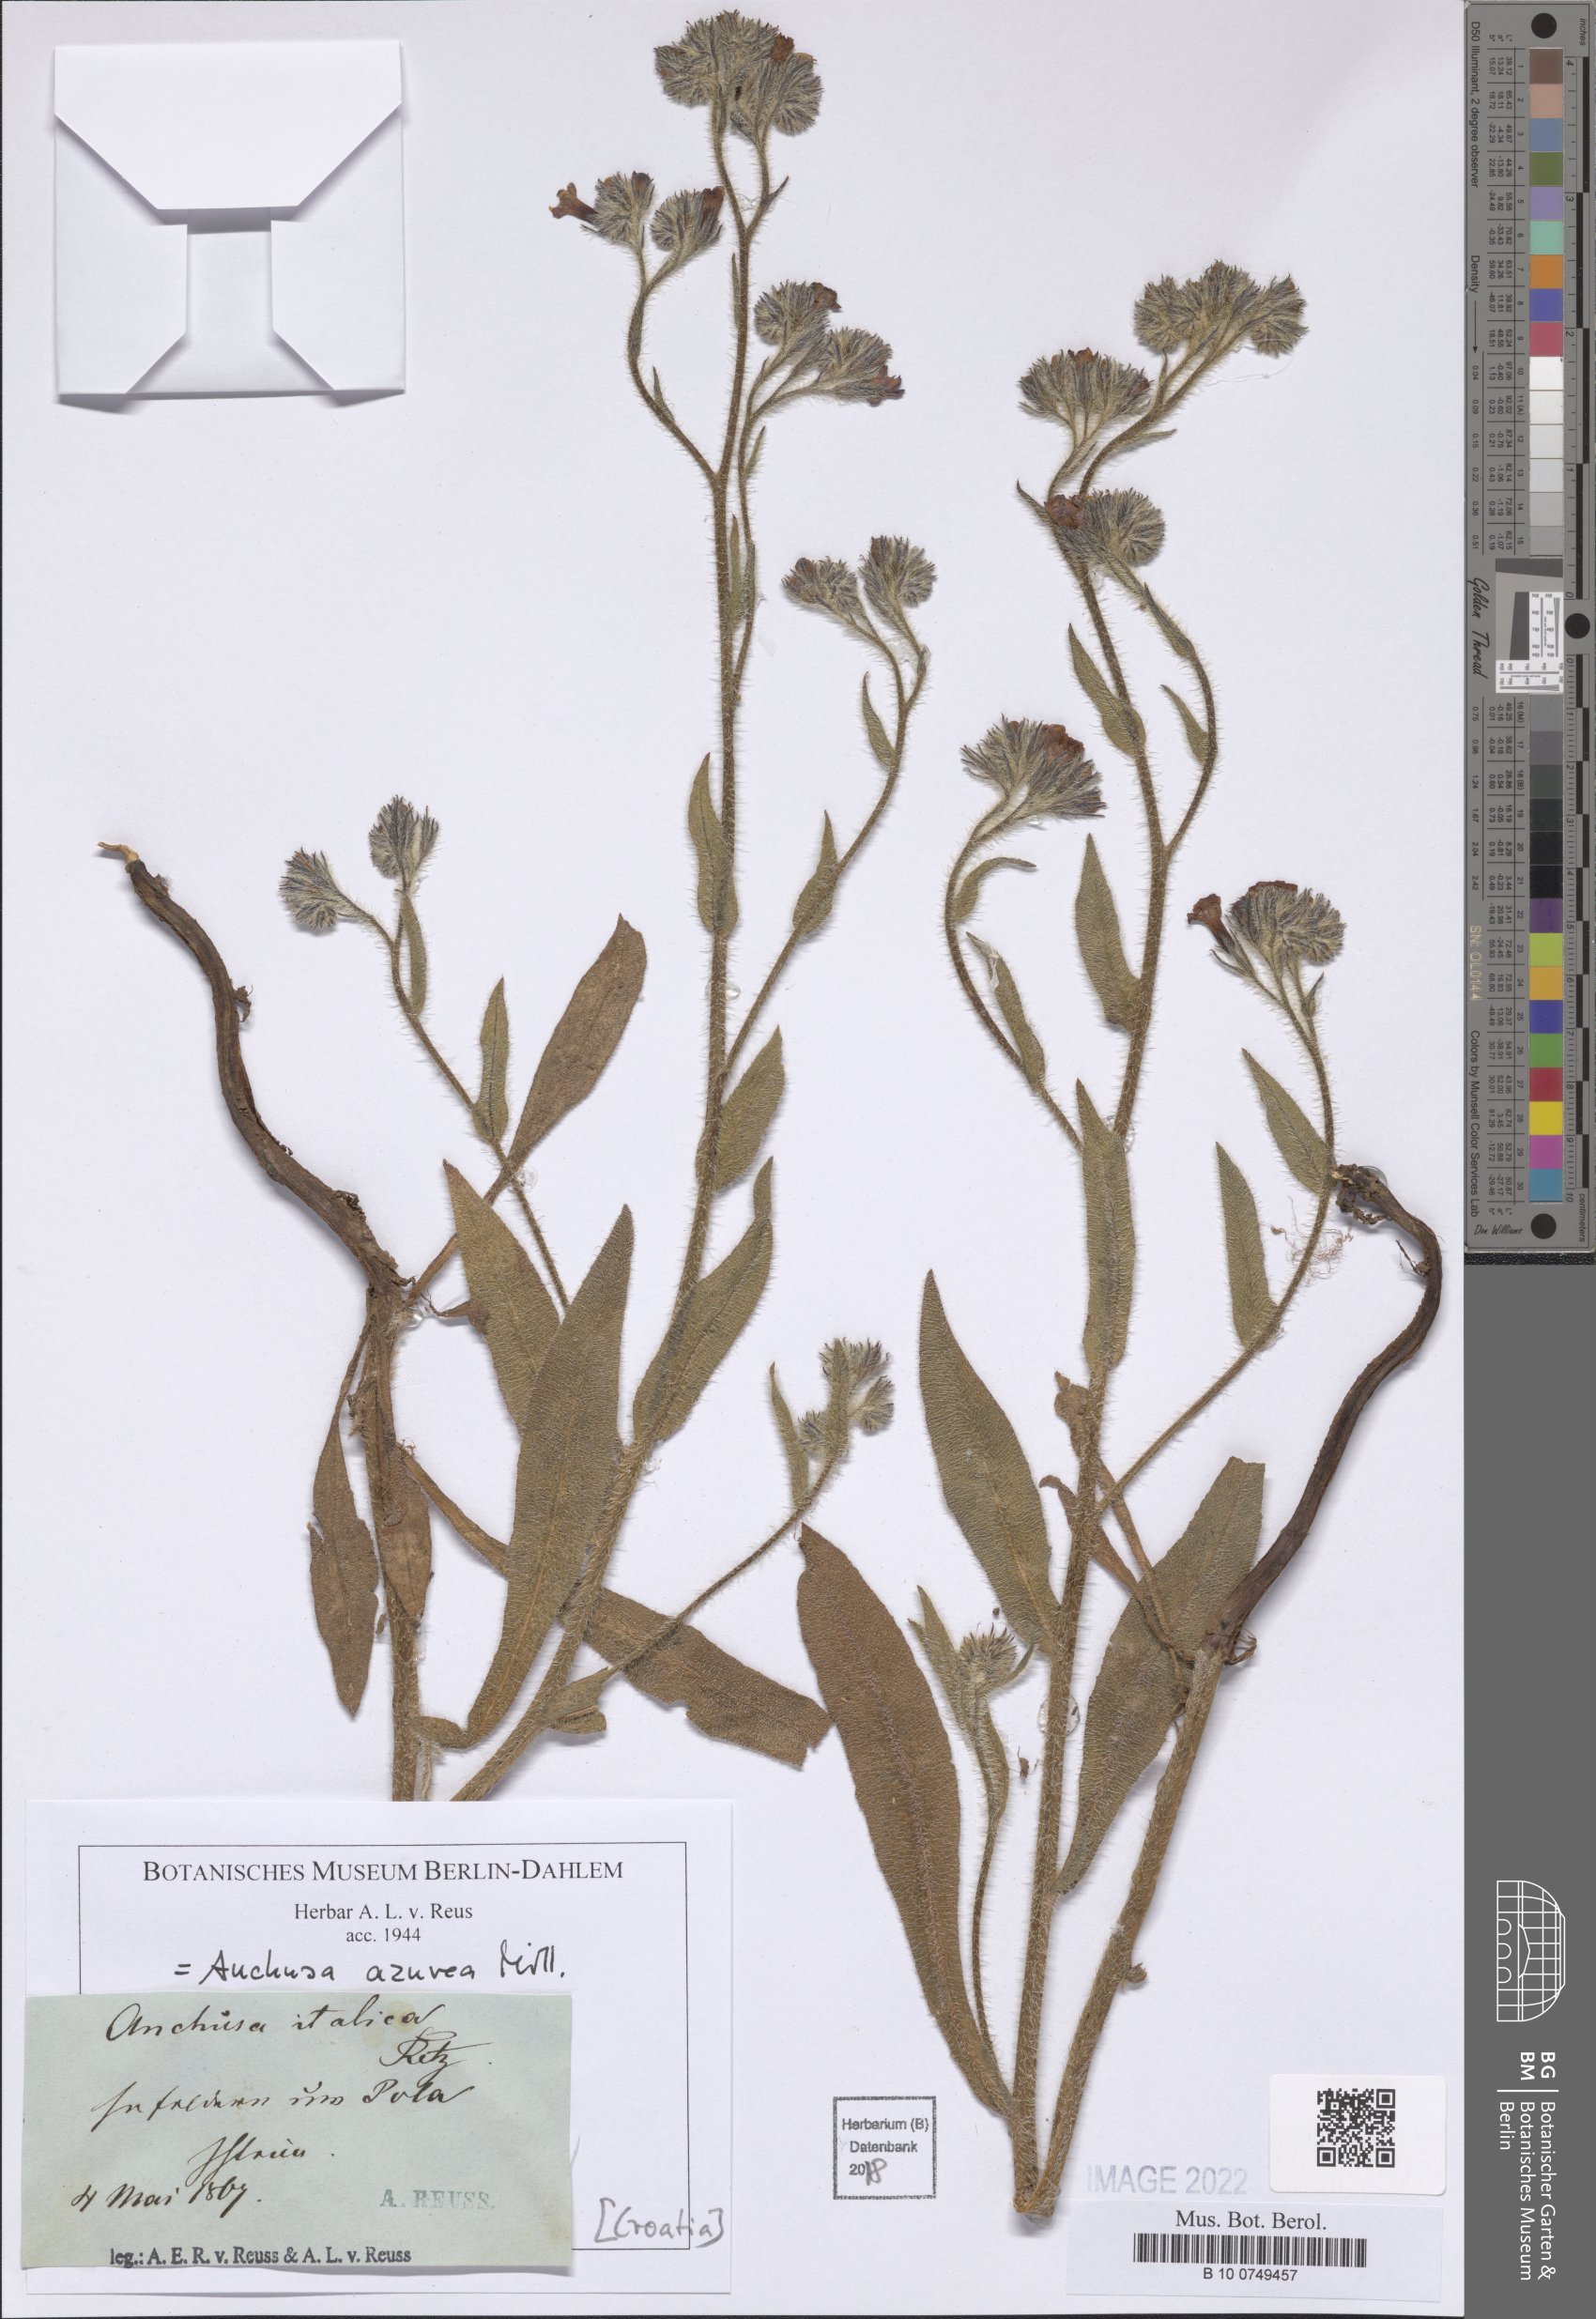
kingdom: Plantae
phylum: Tracheophyta
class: Magnoliopsida
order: Boraginales
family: Boraginaceae
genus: Anchusa
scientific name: Anchusa azurea
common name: Garden anchusa
